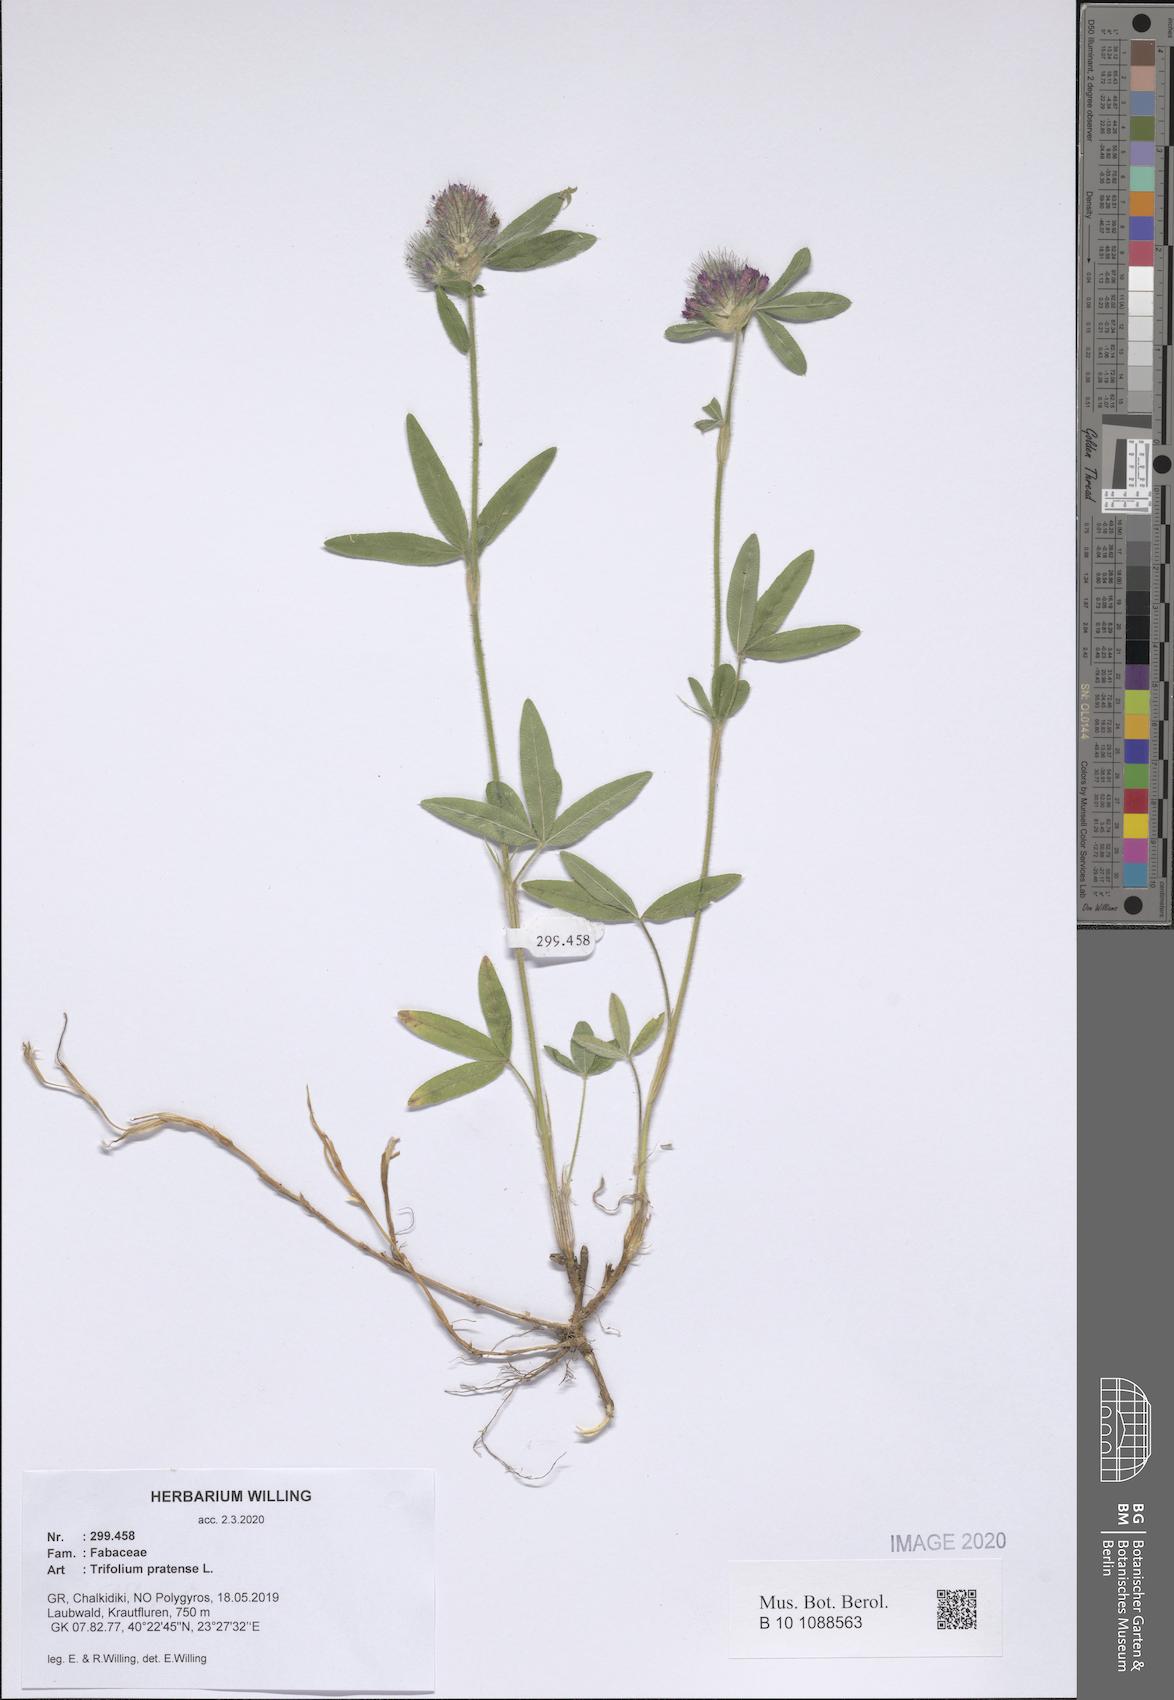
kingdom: Plantae
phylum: Tracheophyta
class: Magnoliopsida
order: Fabales
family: Fabaceae
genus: Trifolium
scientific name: Trifolium pratense
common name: Red clover
